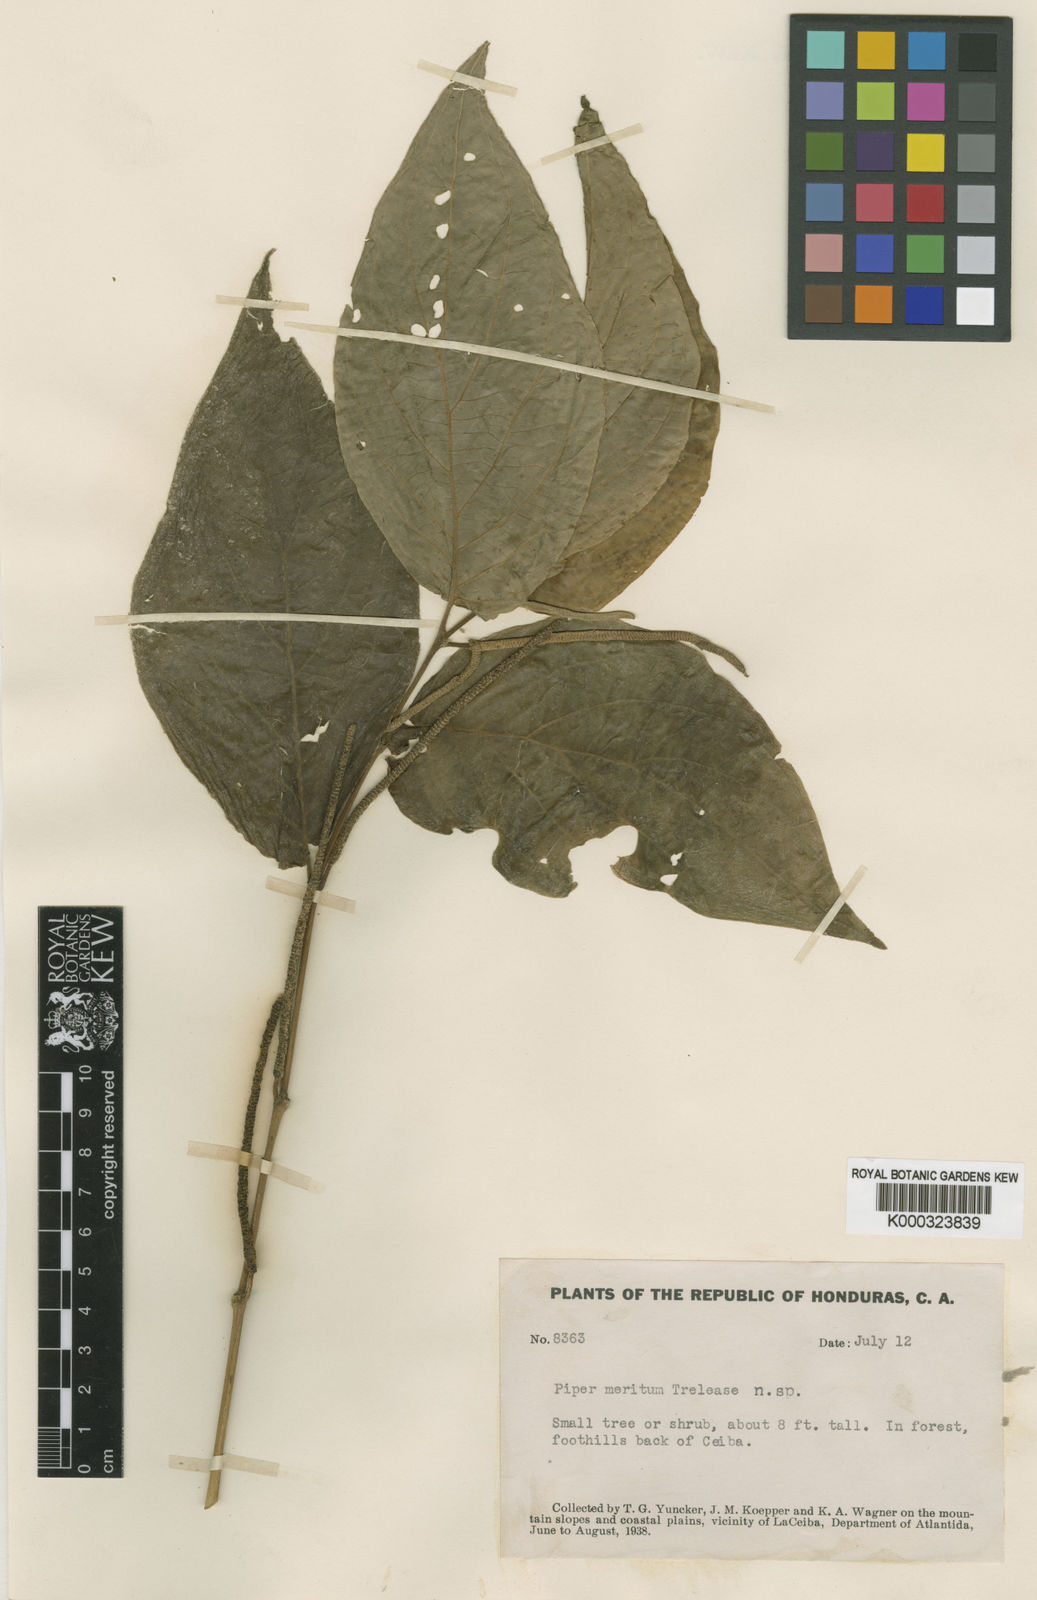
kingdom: Plantae
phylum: Tracheophyta
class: Magnoliopsida
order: Piperales
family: Piperaceae
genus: Piper
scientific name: Piper hispidum
